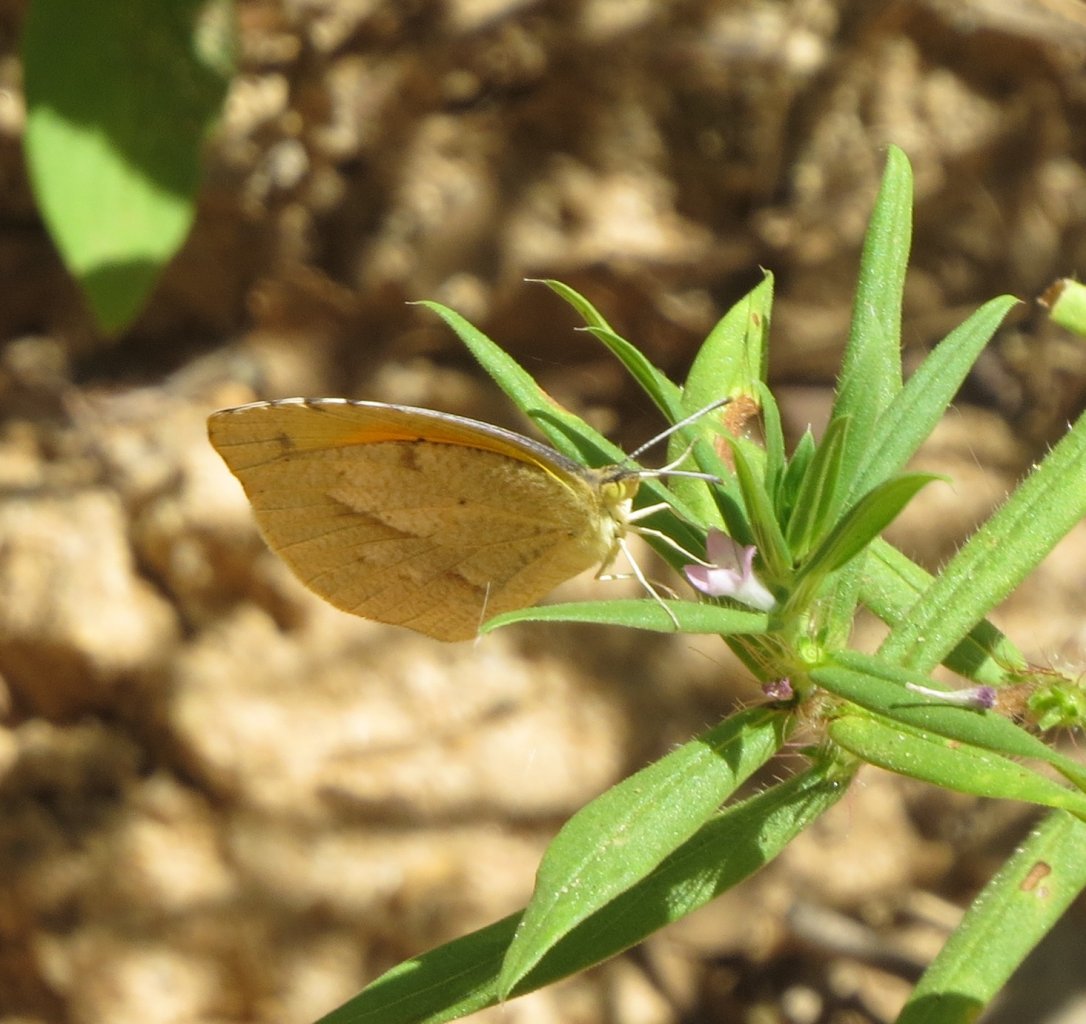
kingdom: Animalia
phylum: Arthropoda
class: Insecta
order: Lepidoptera
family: Pieridae
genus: Abaeis
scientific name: Abaeis nicippe
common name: Sleepy Orange
